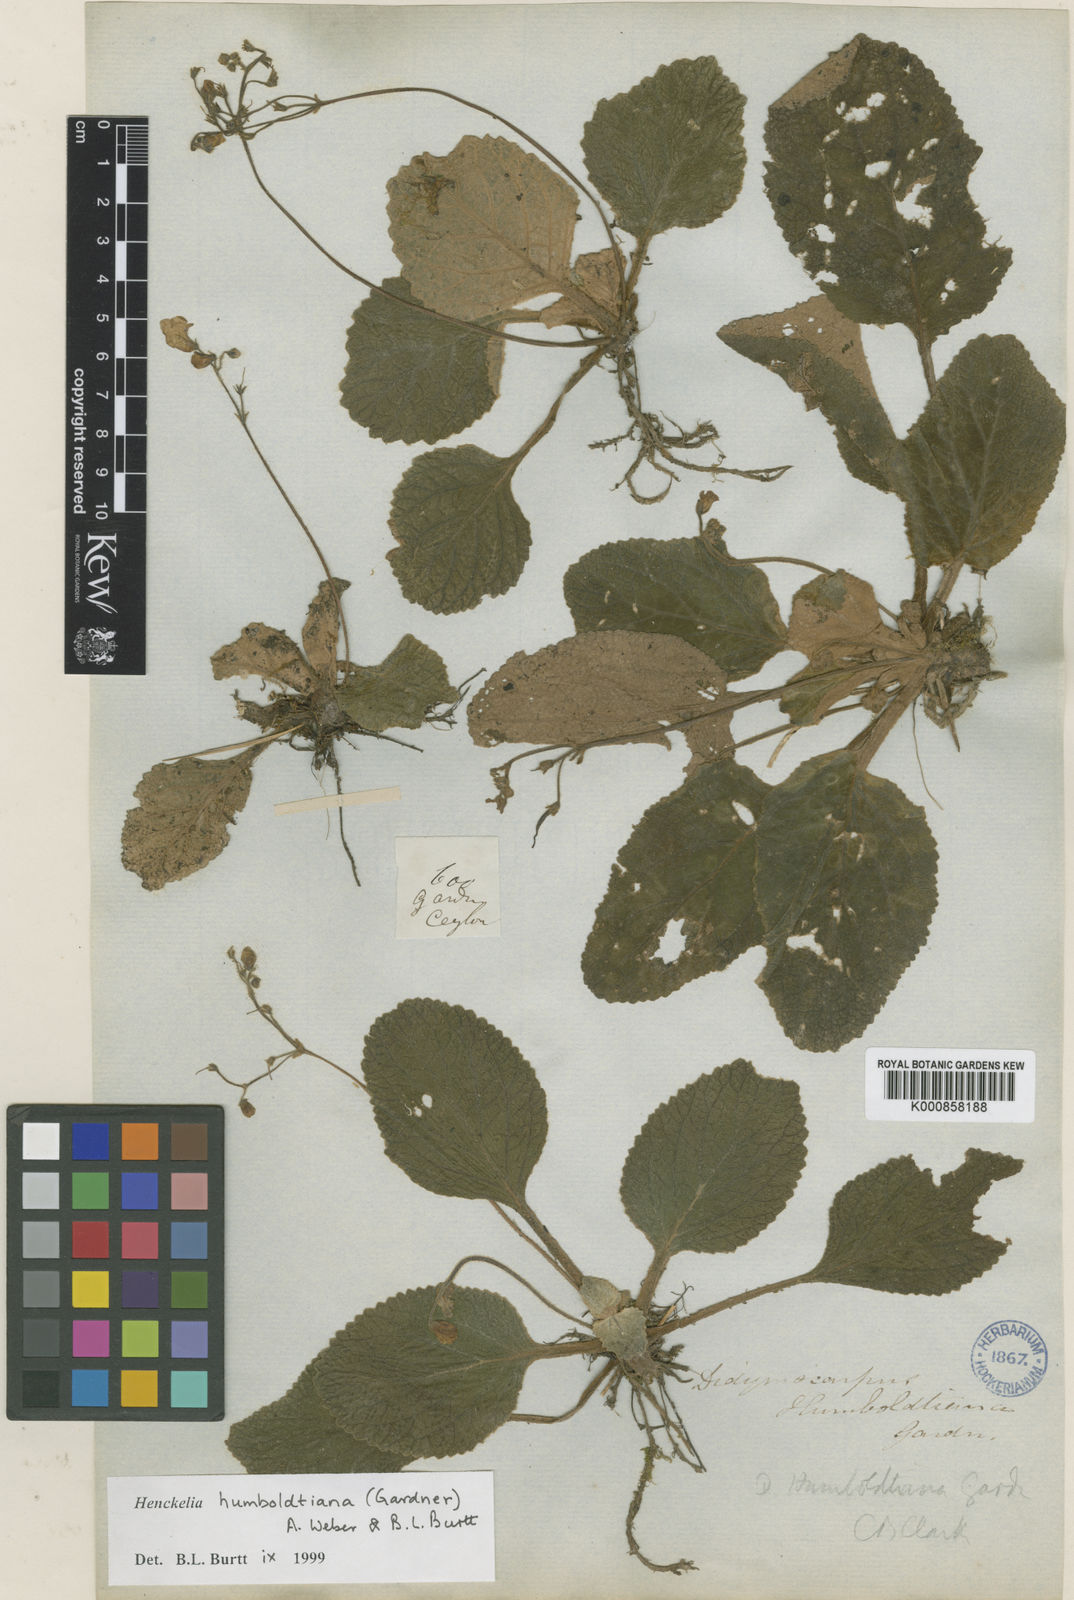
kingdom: Plantae
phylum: Tracheophyta
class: Magnoliopsida
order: Lamiales
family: Gesneriaceae
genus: Henckelia
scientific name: Henckelia humboldtiana
